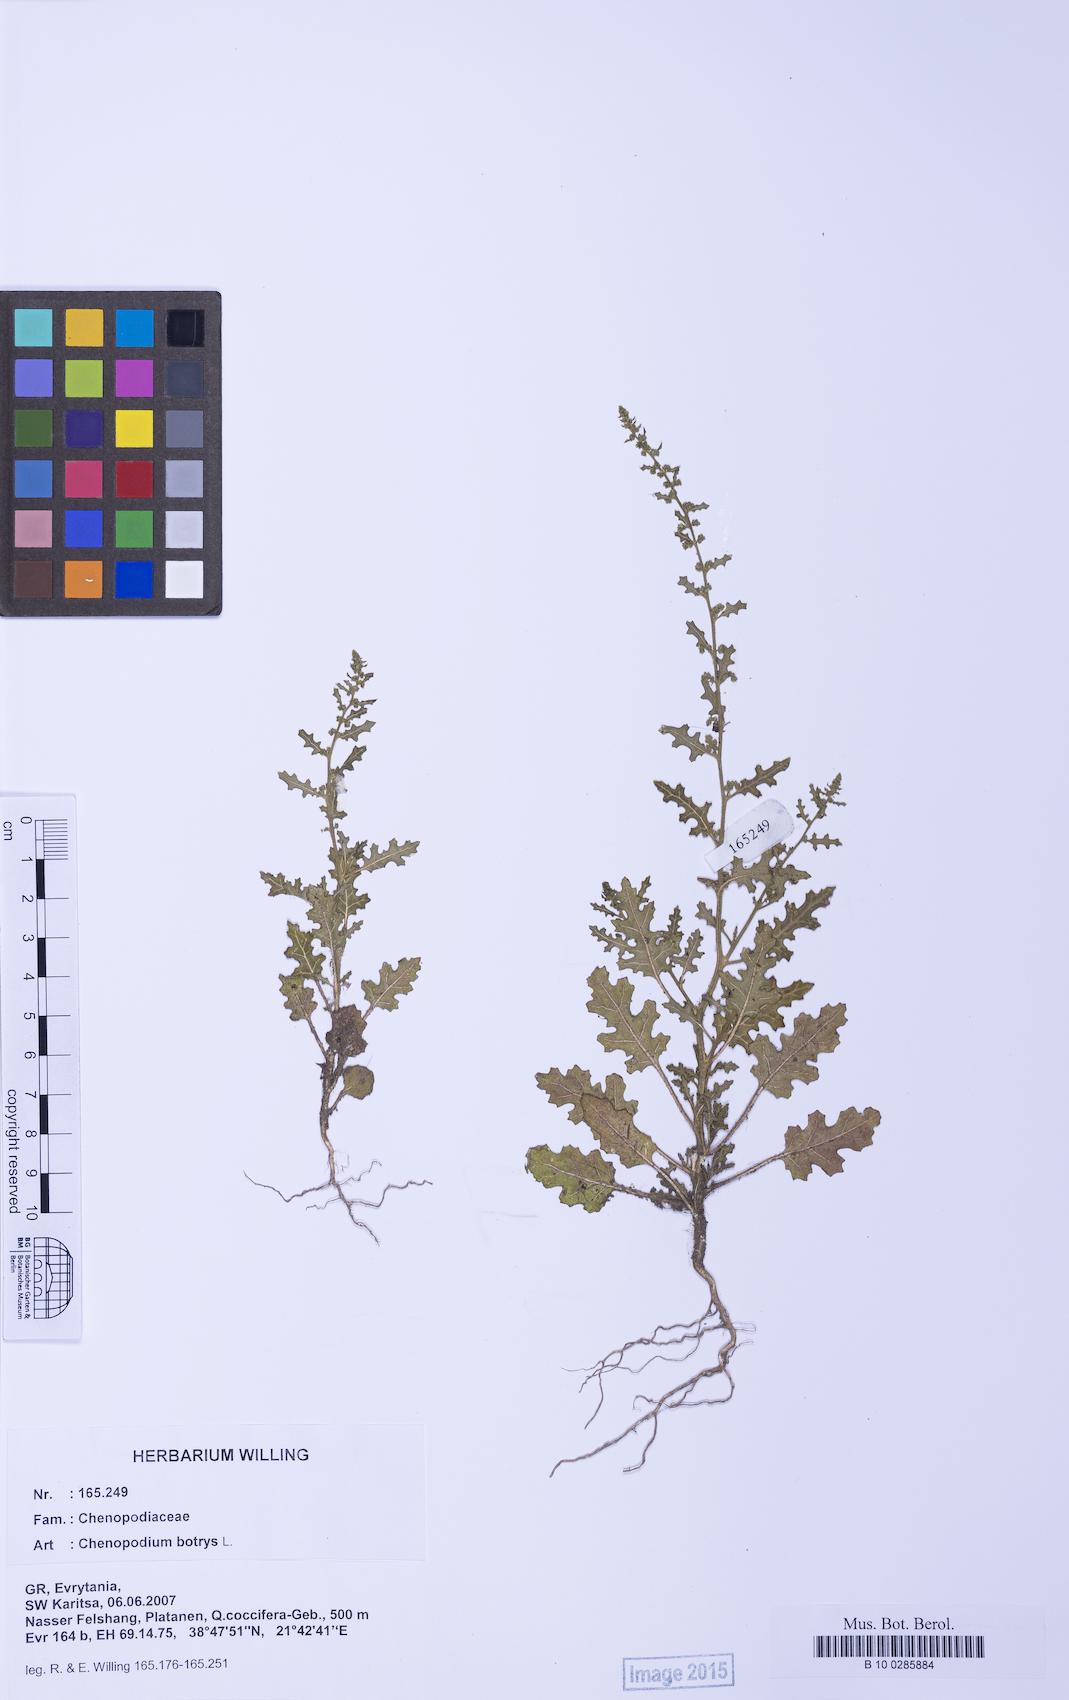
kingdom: Plantae
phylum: Tracheophyta
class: Magnoliopsida
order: Caryophyllales
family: Amaranthaceae
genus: Dysphania
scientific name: Dysphania botrys
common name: Feather-geranium
